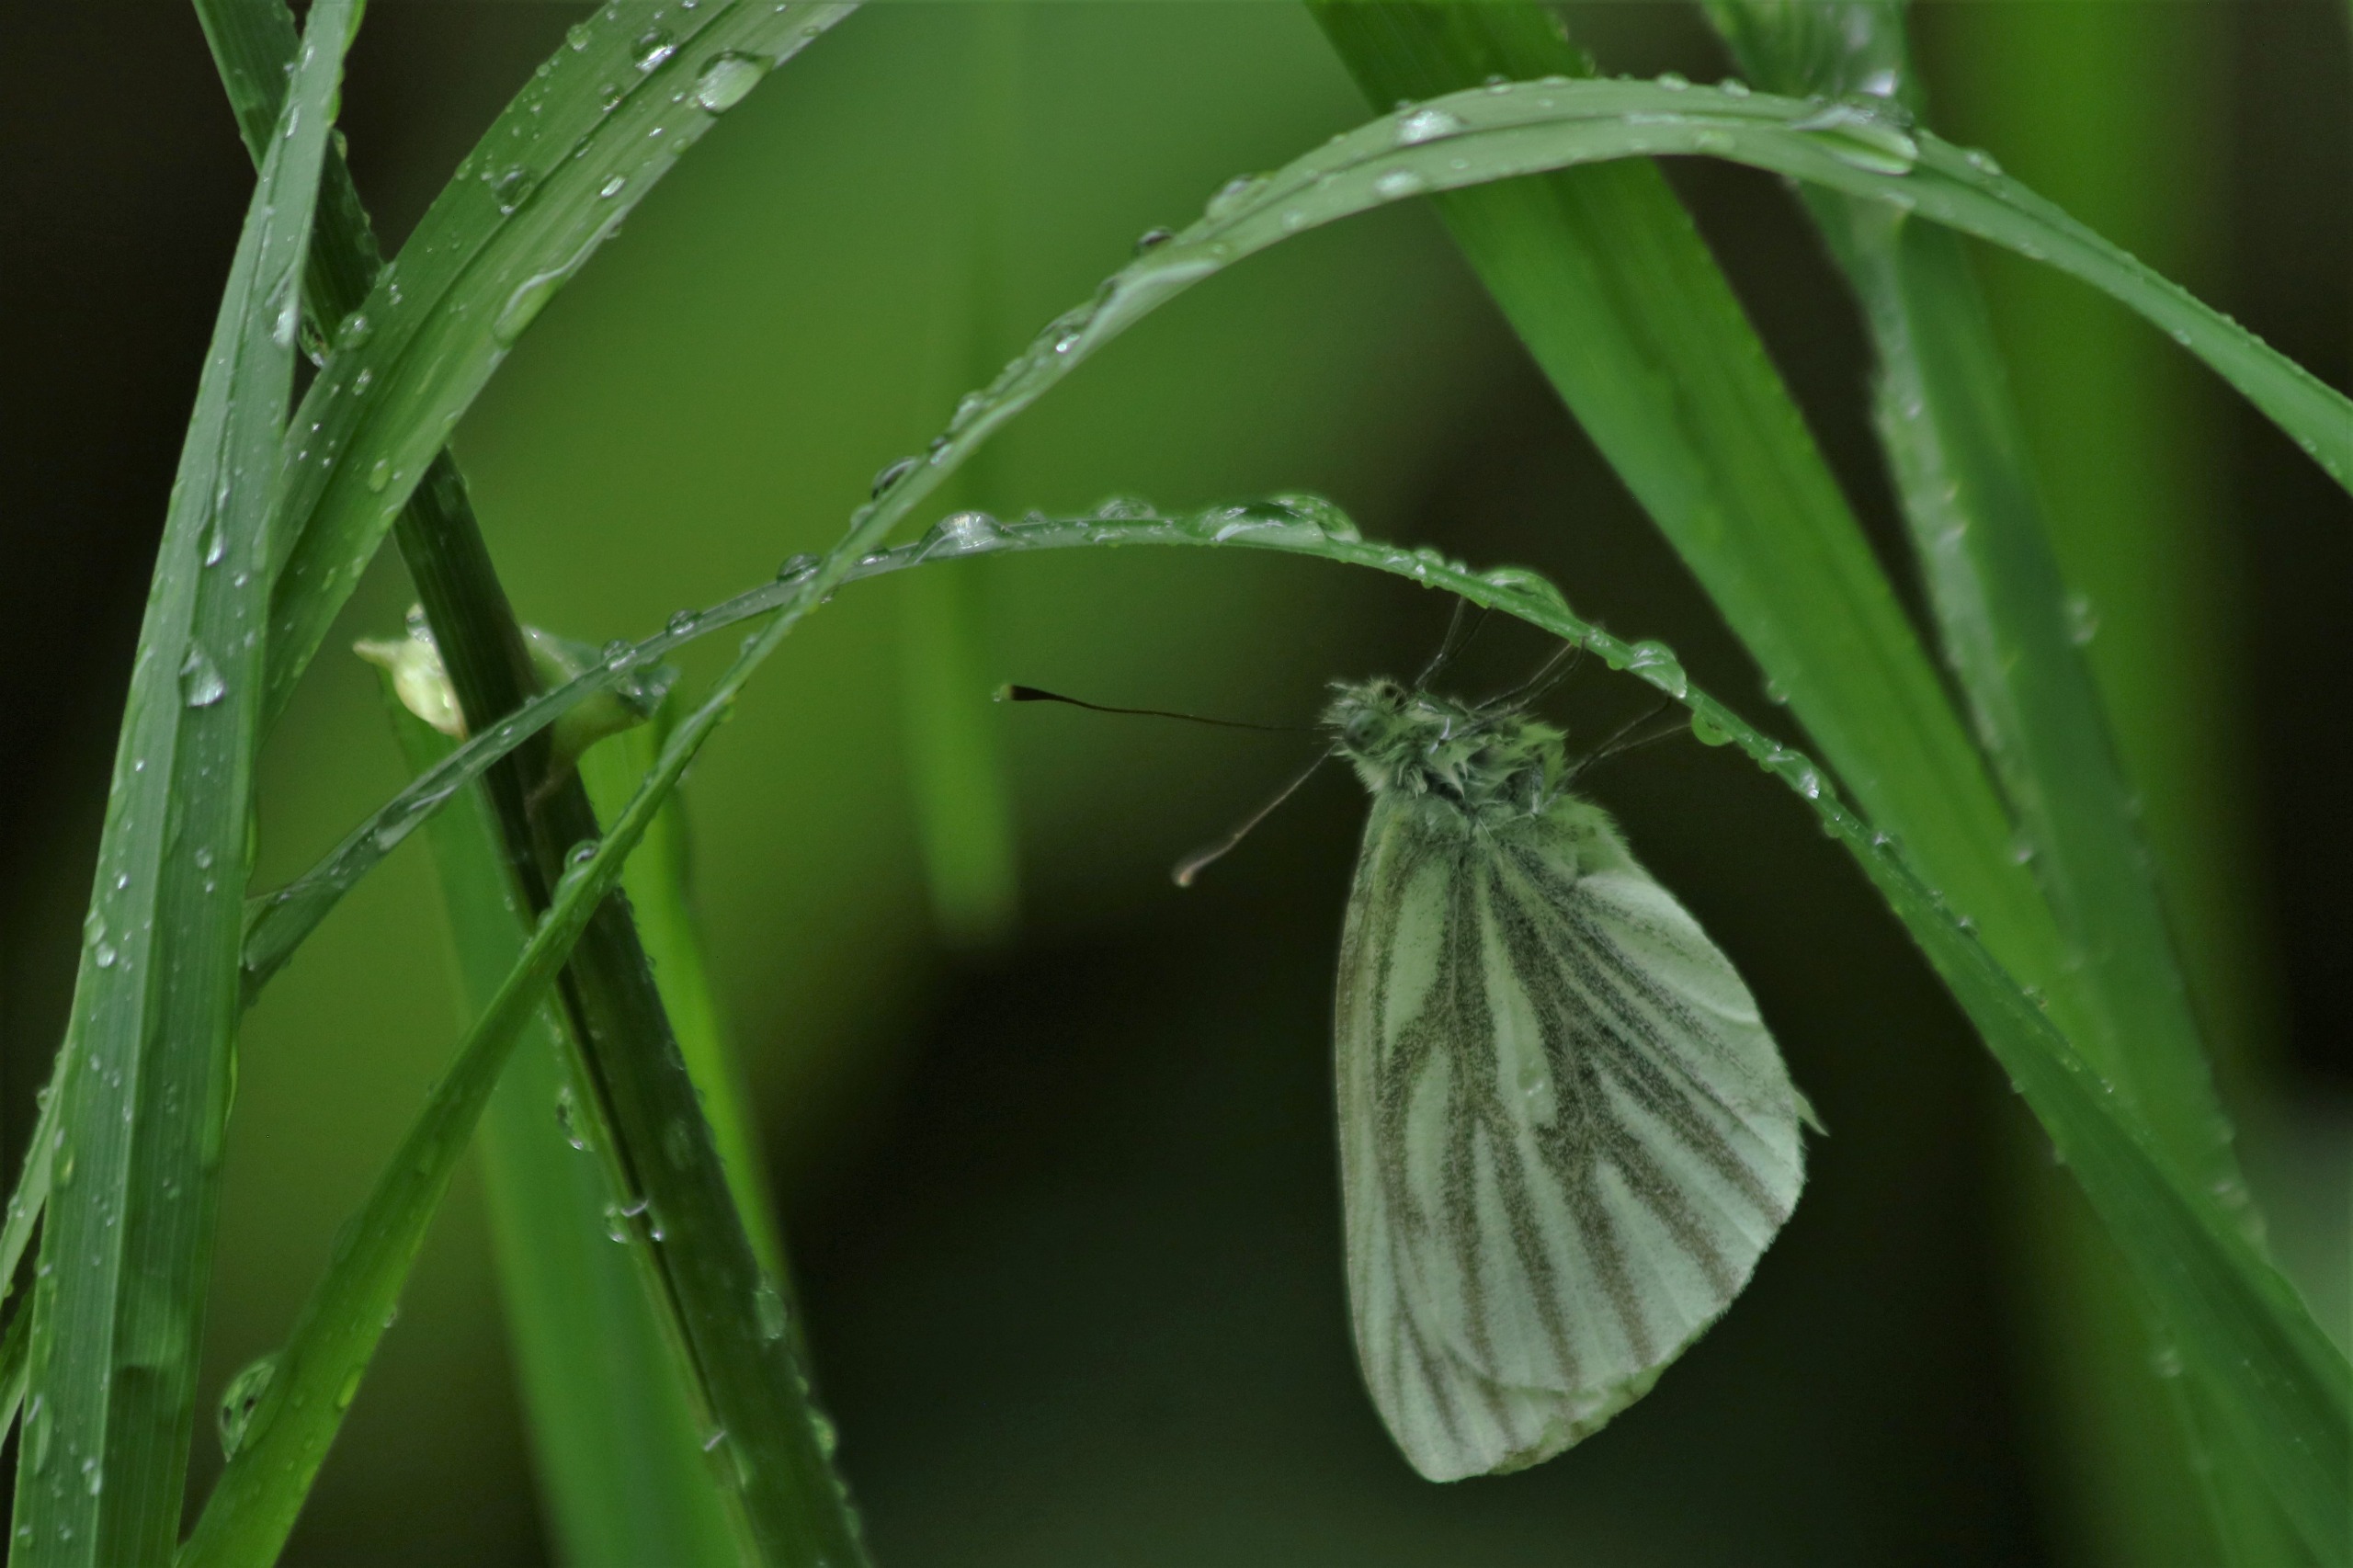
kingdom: Animalia
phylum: Arthropoda
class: Insecta
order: Lepidoptera
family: Pieridae
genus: Pieris
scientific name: Pieris napi
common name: Grønåret kålsommerfugl
